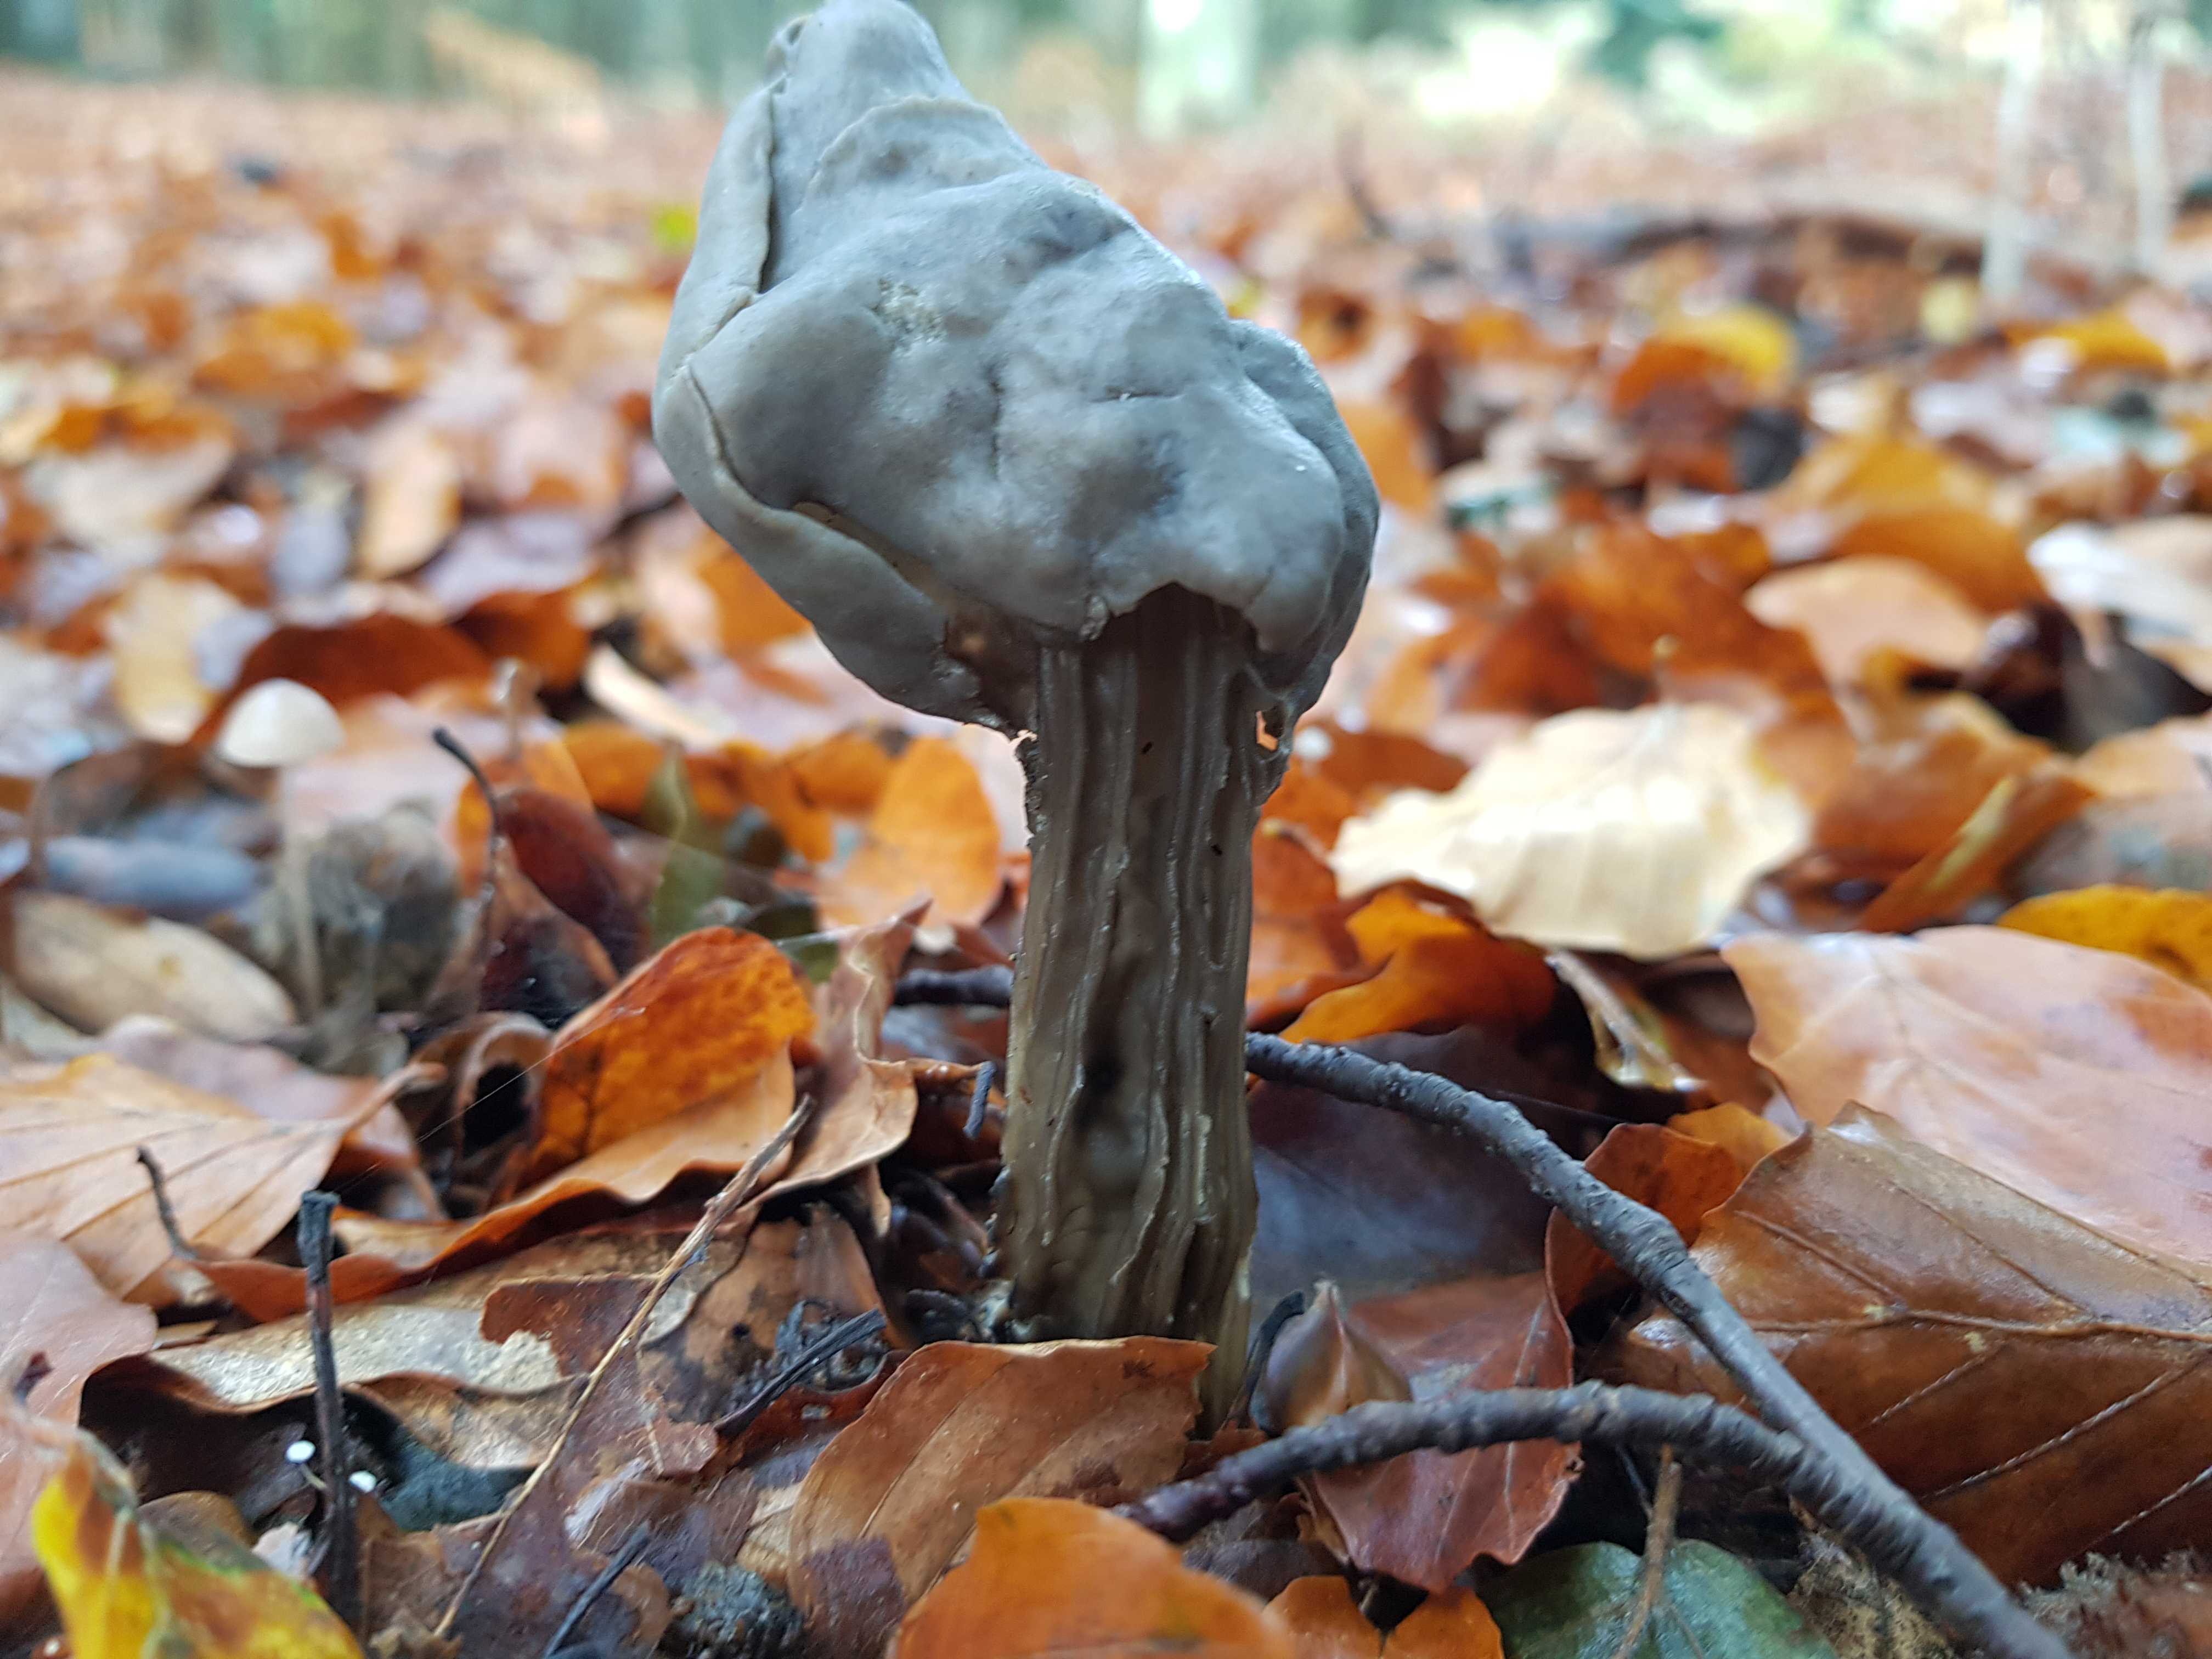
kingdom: Fungi
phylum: Ascomycota
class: Pezizomycetes
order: Pezizales
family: Helvellaceae
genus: Helvella
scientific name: Helvella lacunosa
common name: grubet foldhat
